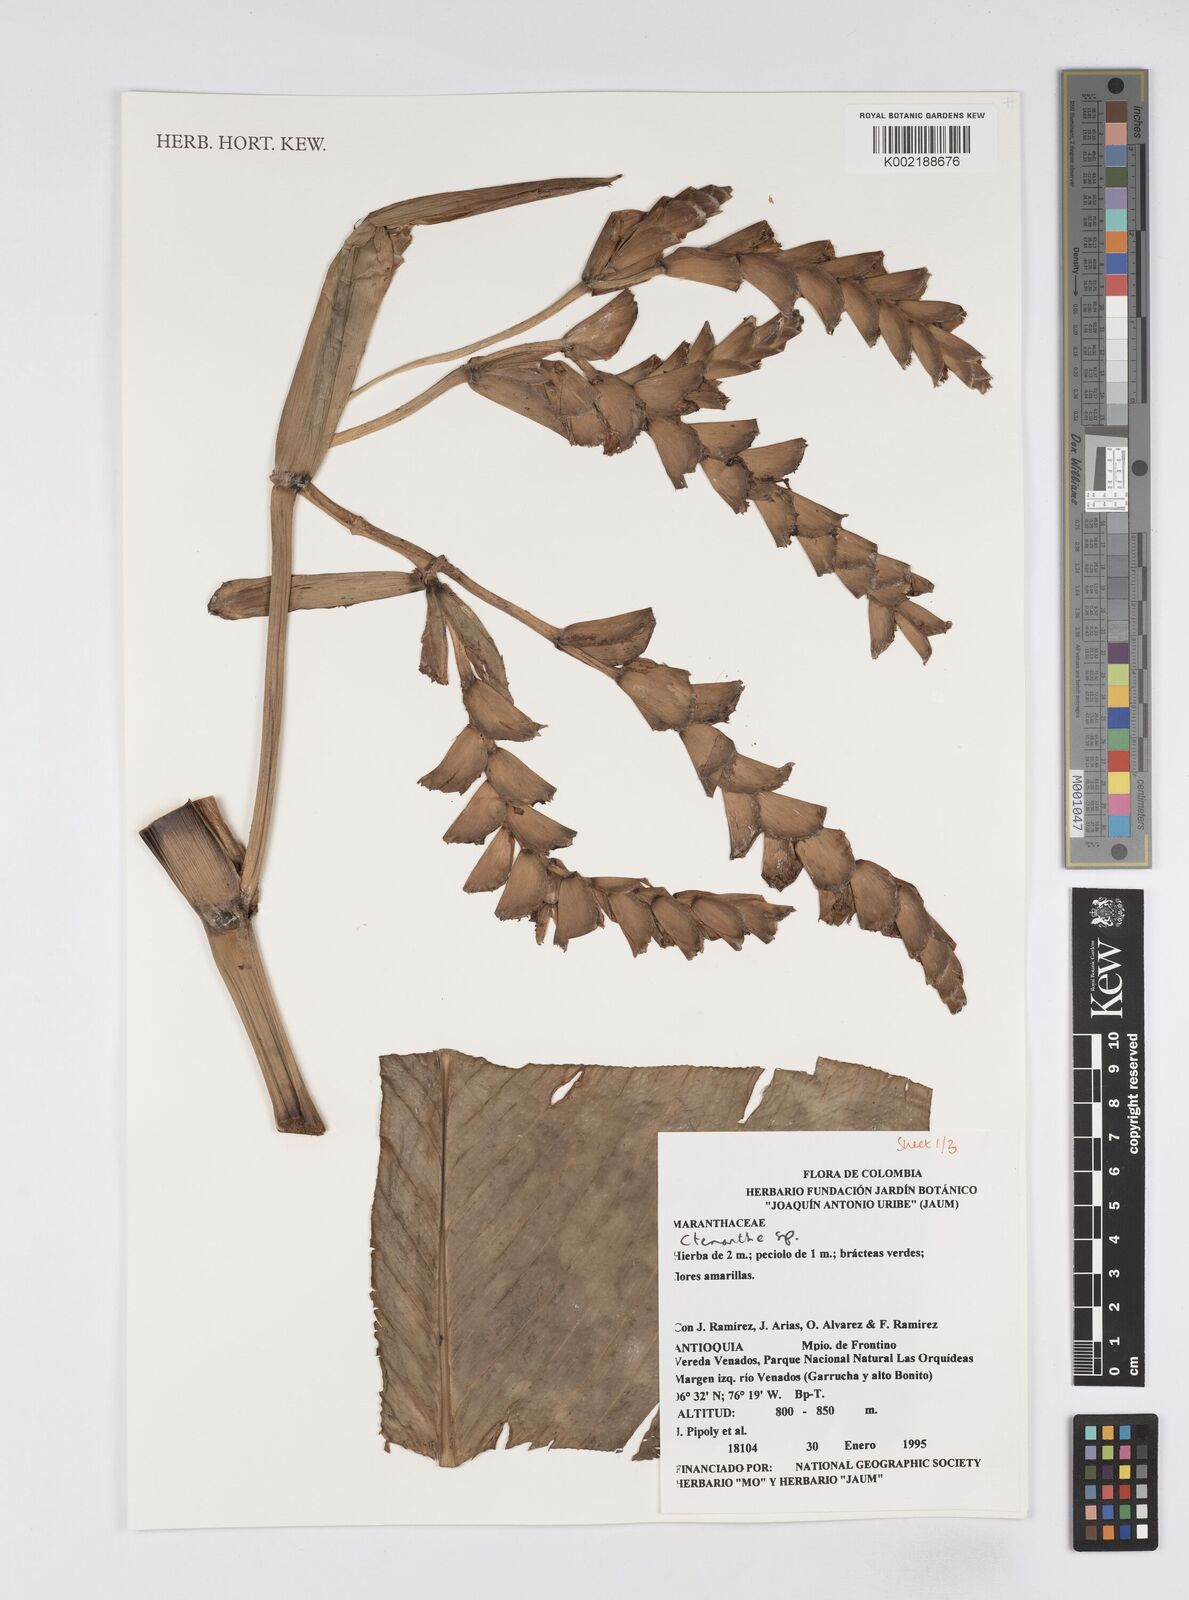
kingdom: Plantae
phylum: Tracheophyta
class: Liliopsida
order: Zingiberales
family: Marantaceae
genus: Ctenanthe
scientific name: Ctenanthe
